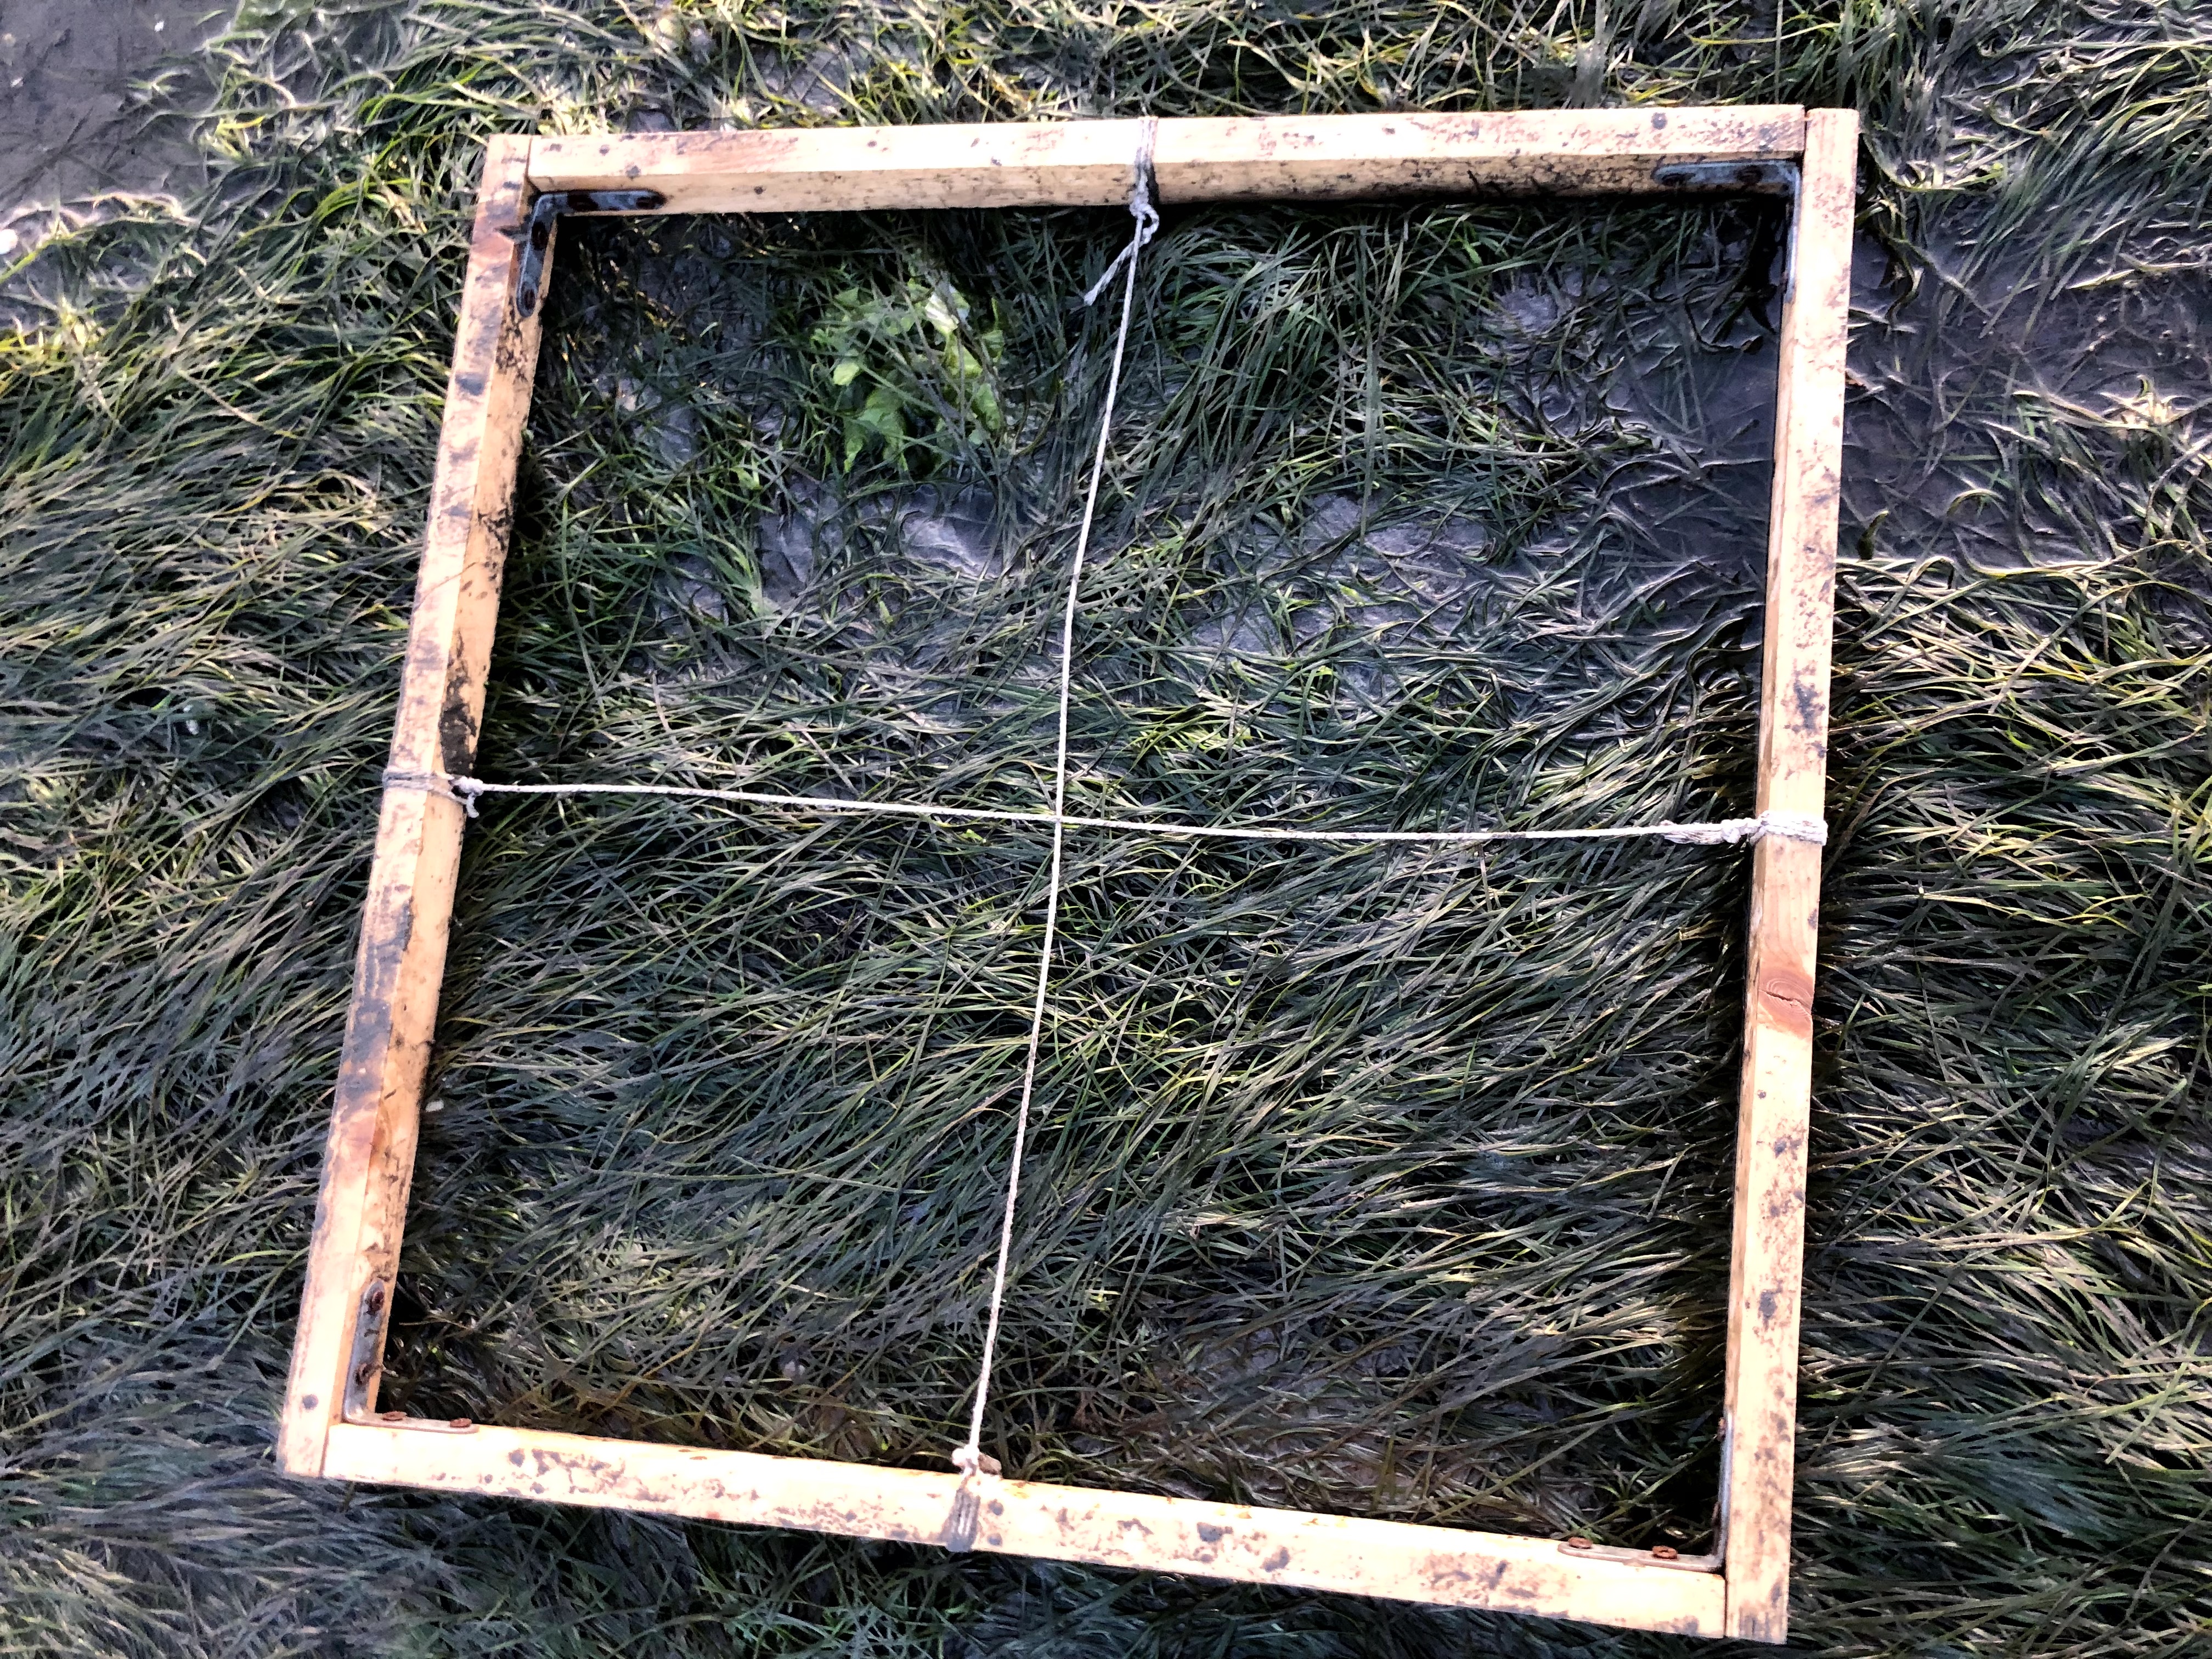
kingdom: Plantae
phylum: Tracheophyta
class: Liliopsida
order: Alismatales
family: Zosteraceae
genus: Zostera
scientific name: Zostera noltii
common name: Dwarf eelgrass
